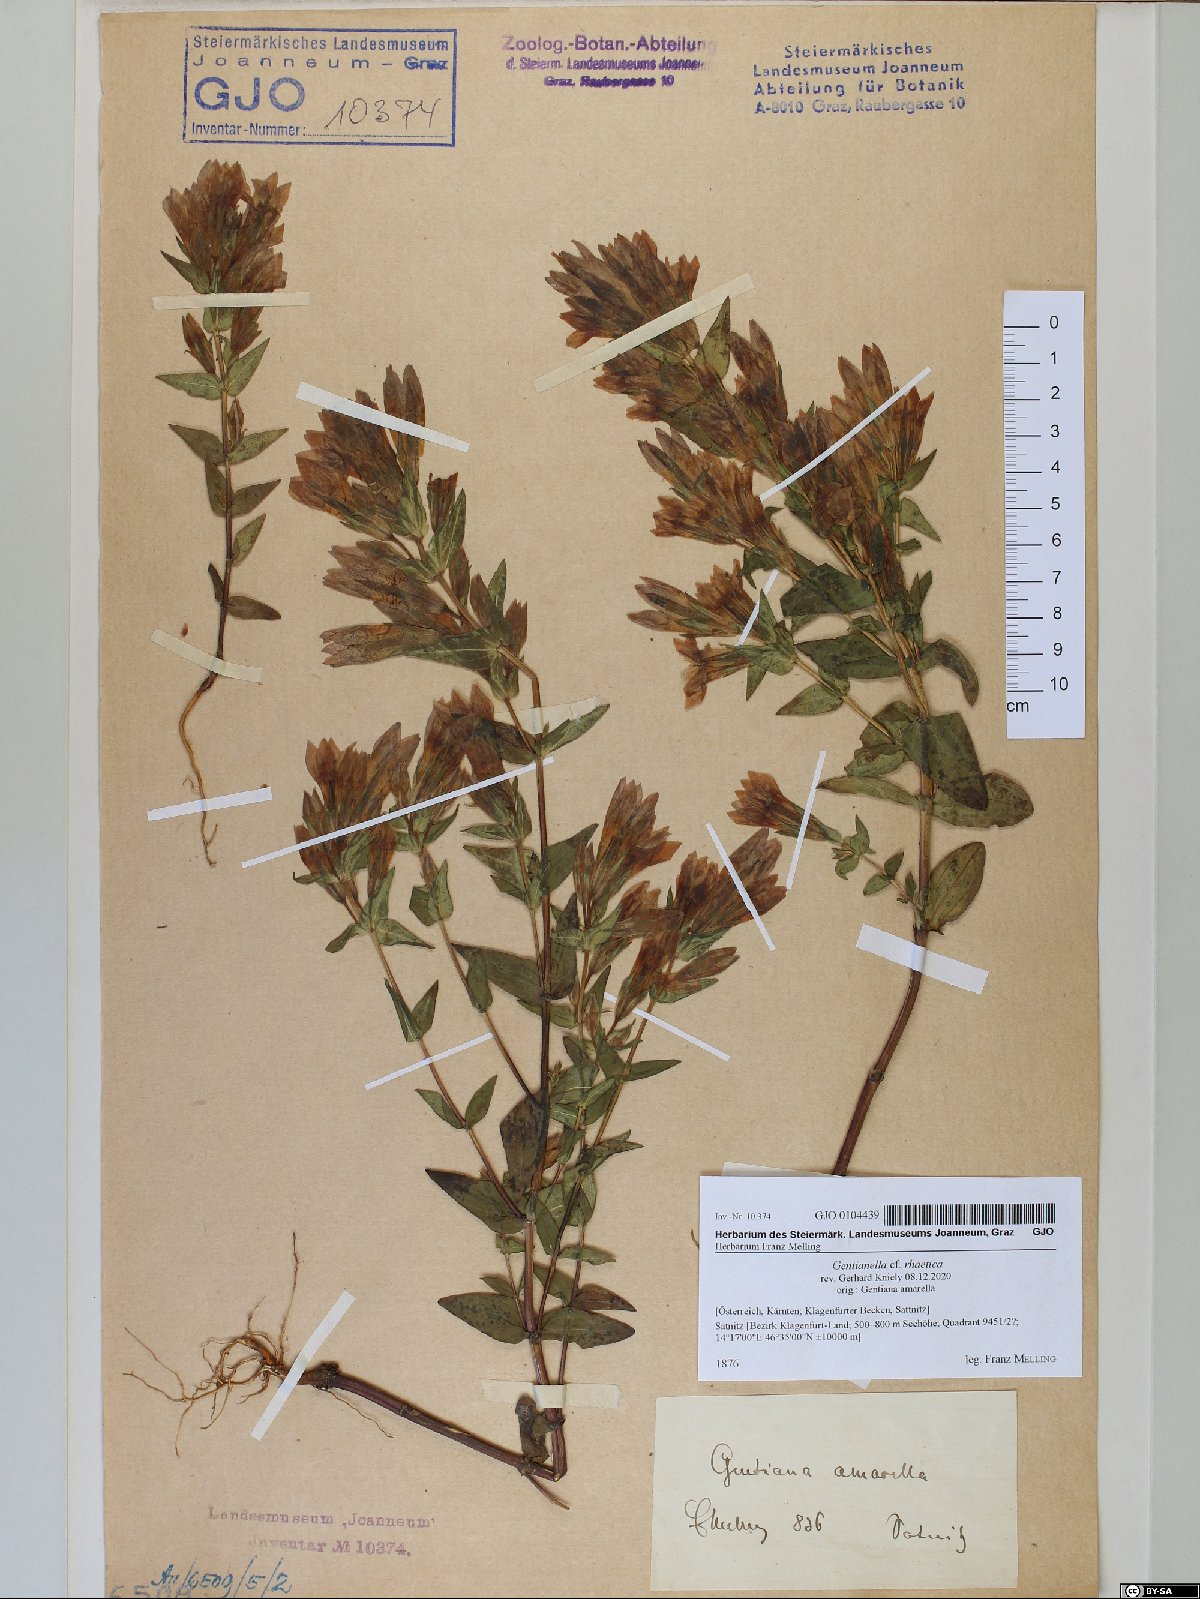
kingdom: Plantae
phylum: Tracheophyta
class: Magnoliopsida
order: Gentianales
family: Gentianaceae
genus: Gentianella
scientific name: Gentianella rhaetica
